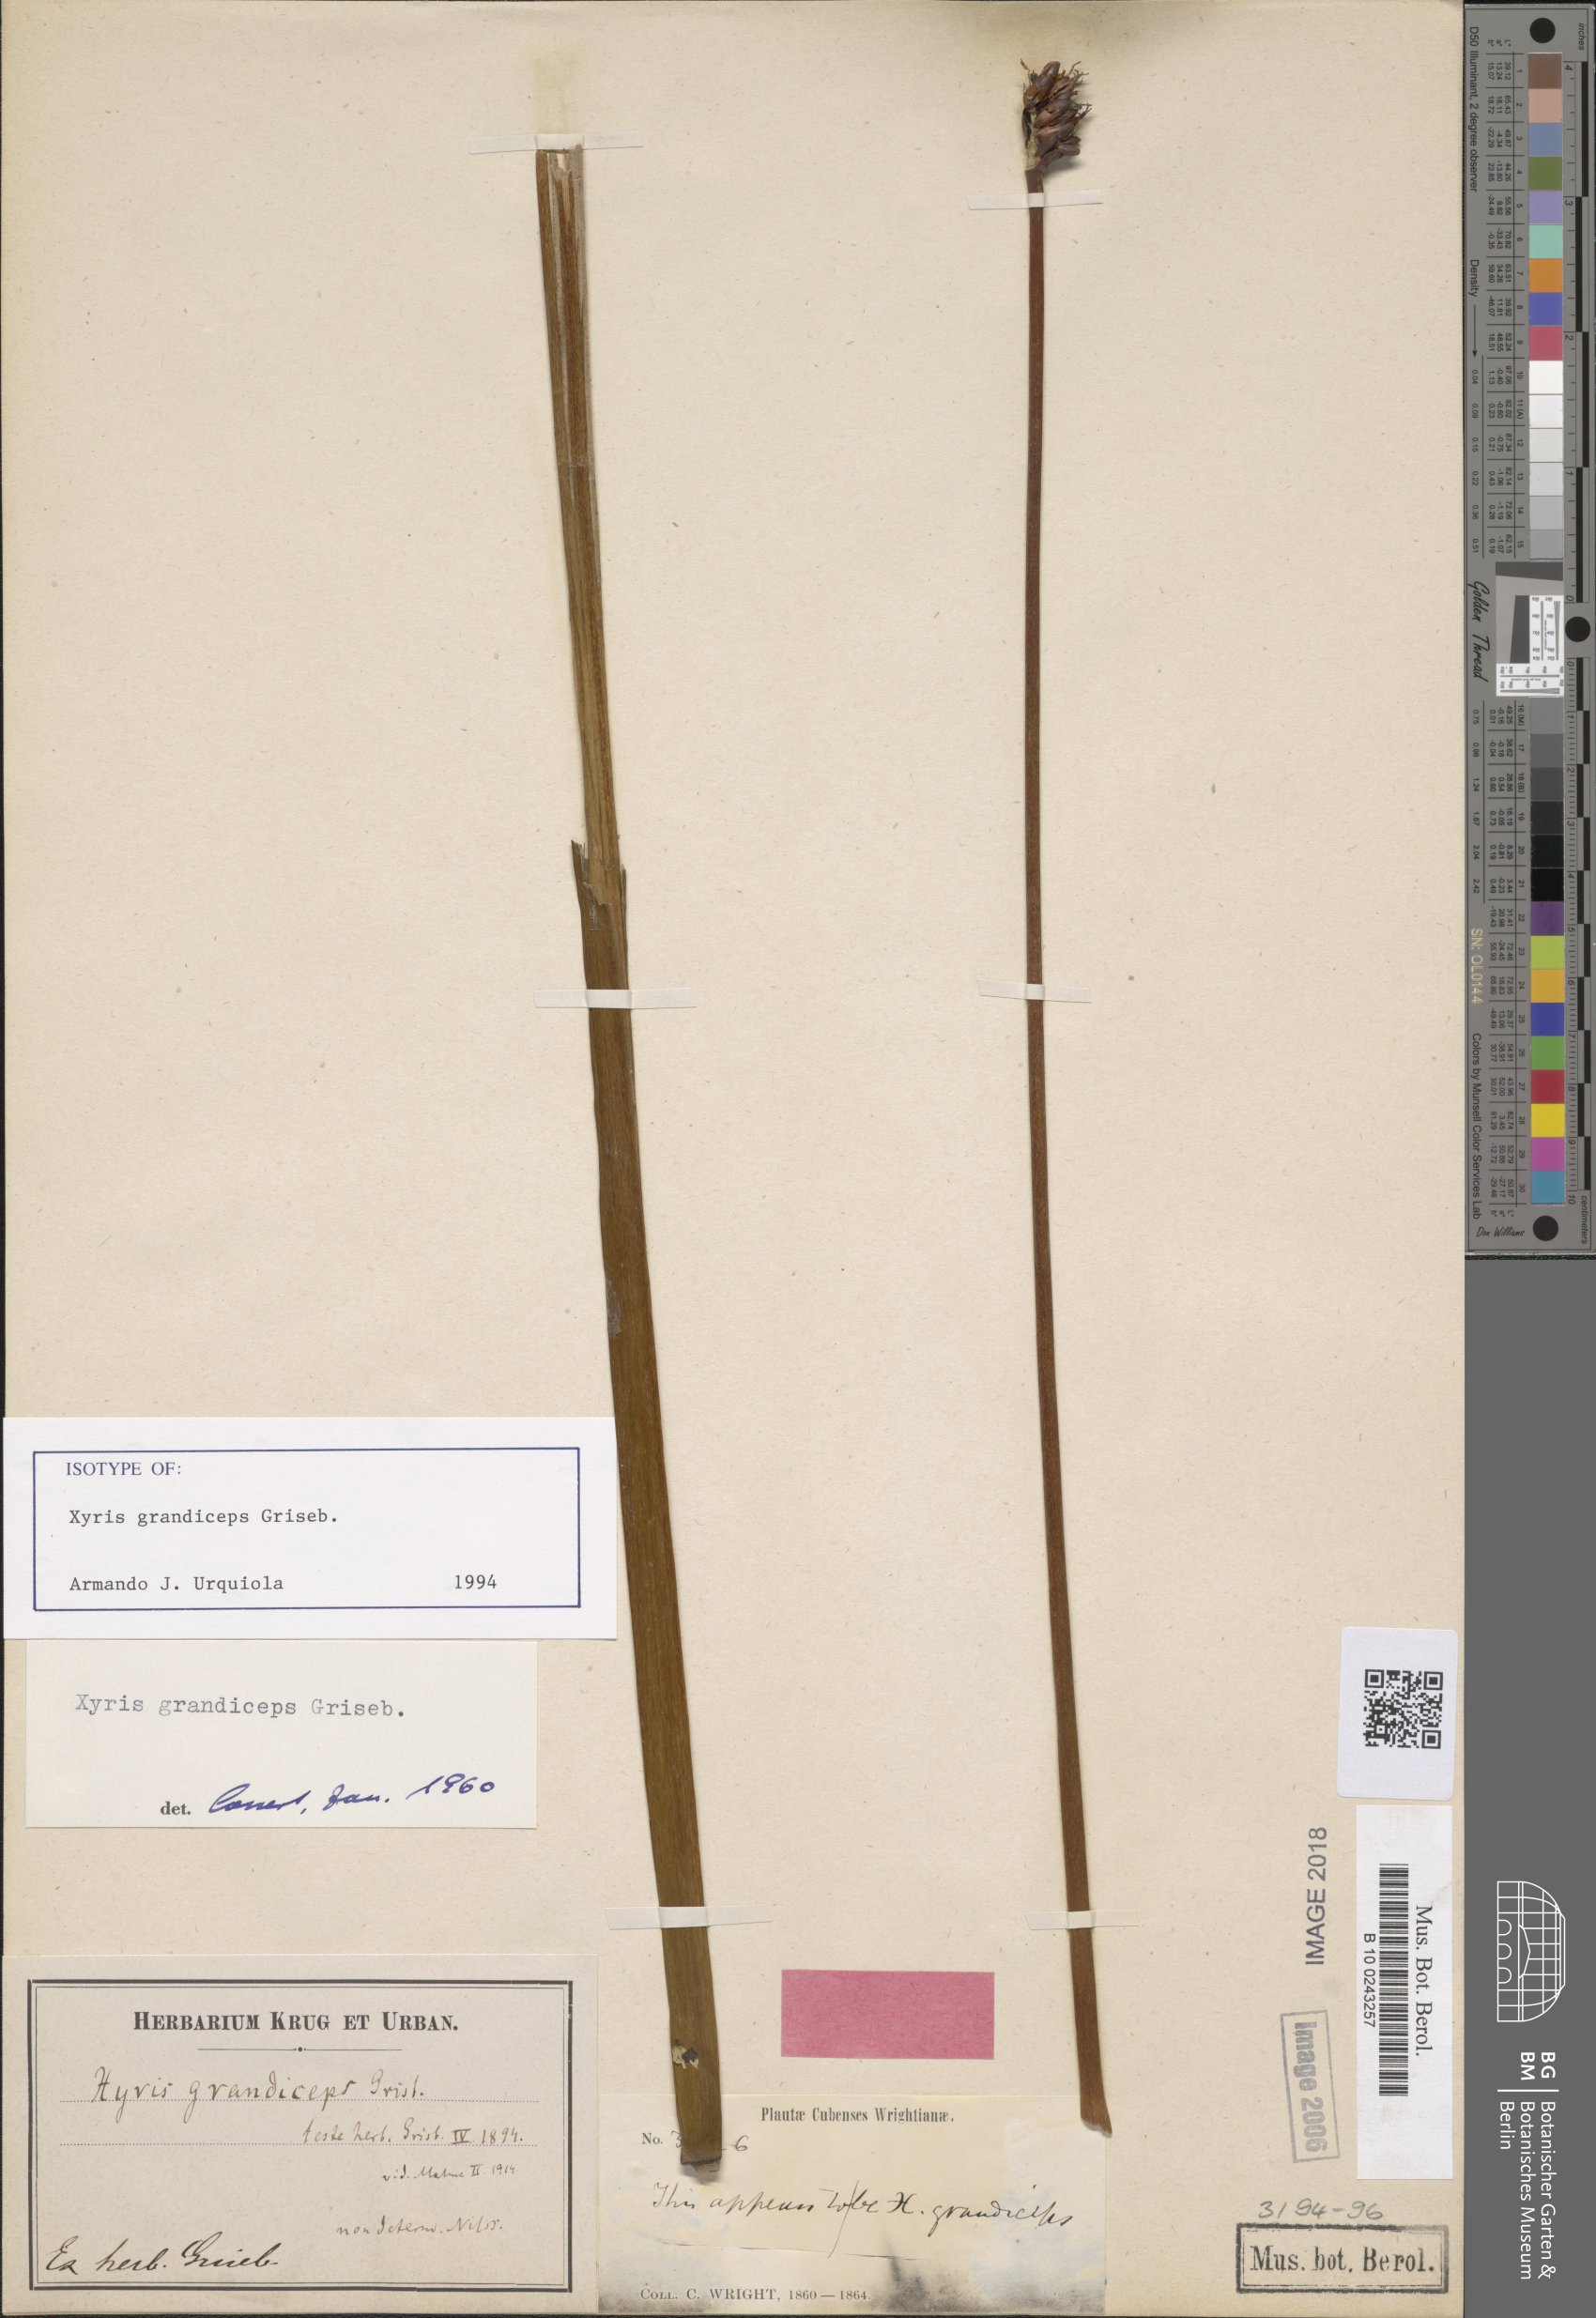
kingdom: Plantae
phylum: Tracheophyta
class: Liliopsida
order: Poales
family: Xyridaceae
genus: Xyris
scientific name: Xyris grandiceps
